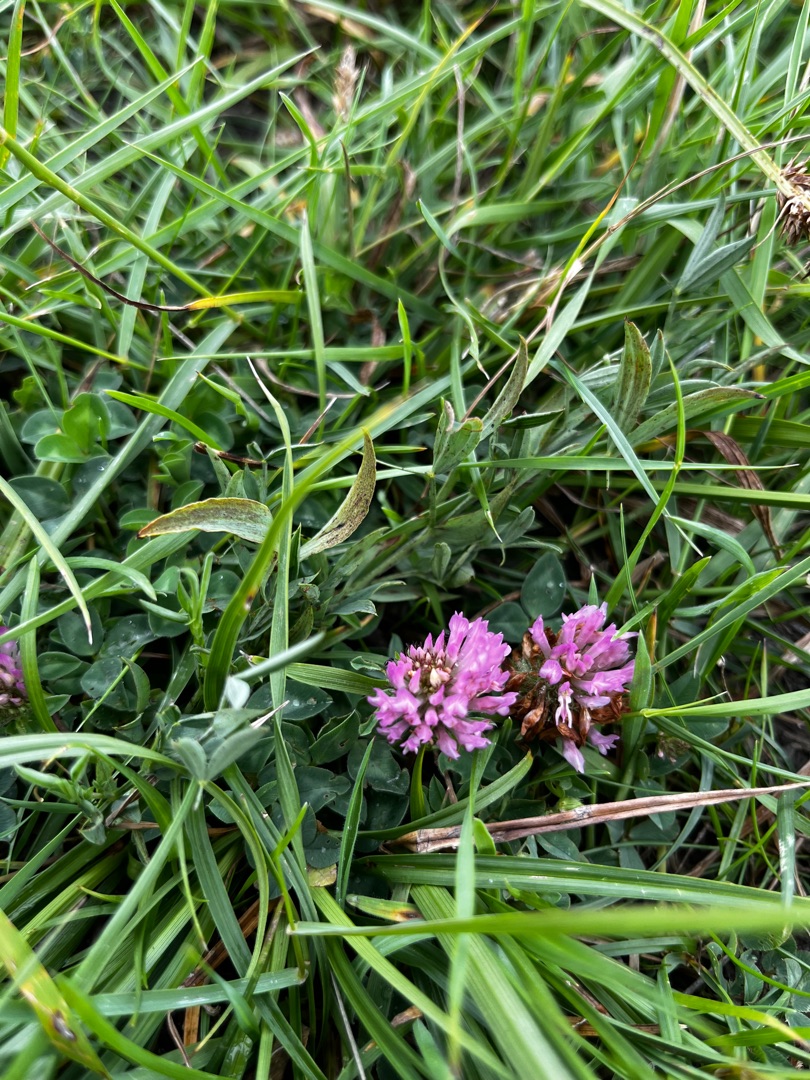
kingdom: Plantae
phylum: Tracheophyta
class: Magnoliopsida
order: Fabales
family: Fabaceae
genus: Trifolium
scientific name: Trifolium pratense
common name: Rød-kløver
